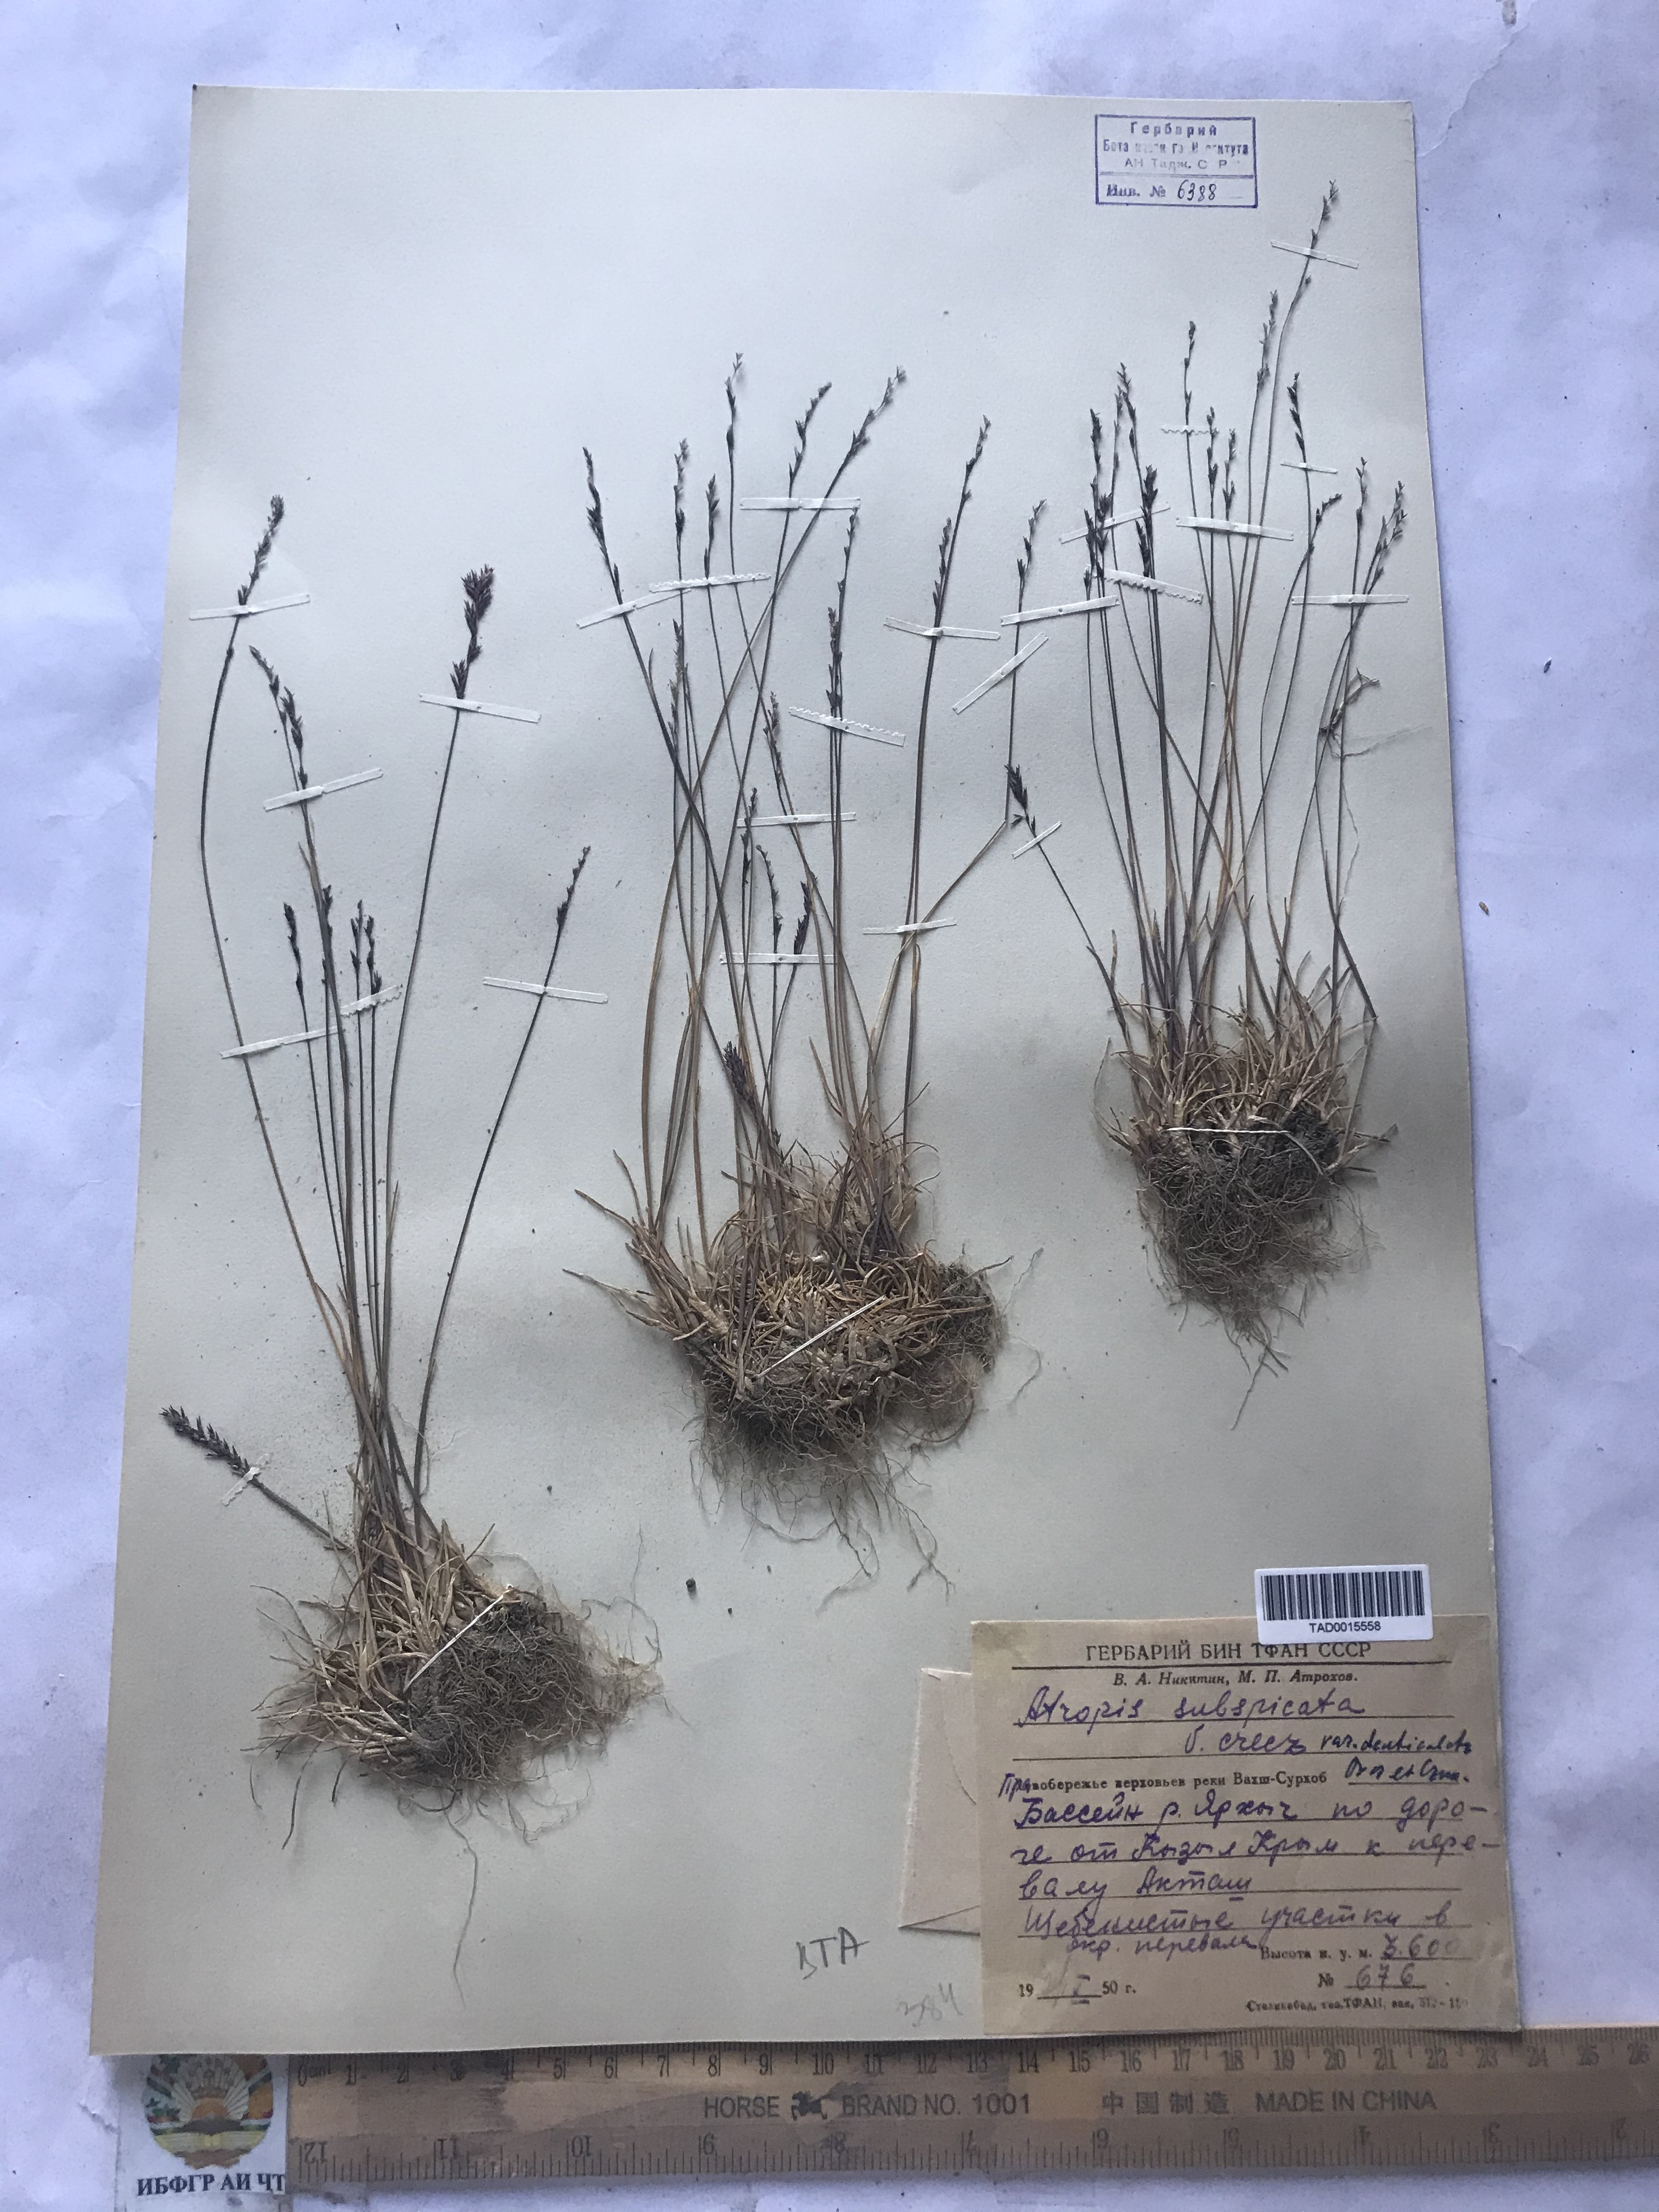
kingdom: Plantae
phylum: Tracheophyta
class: Liliopsida
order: Poales
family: Poaceae
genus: Puccinellia
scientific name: Puccinellia subspicata
